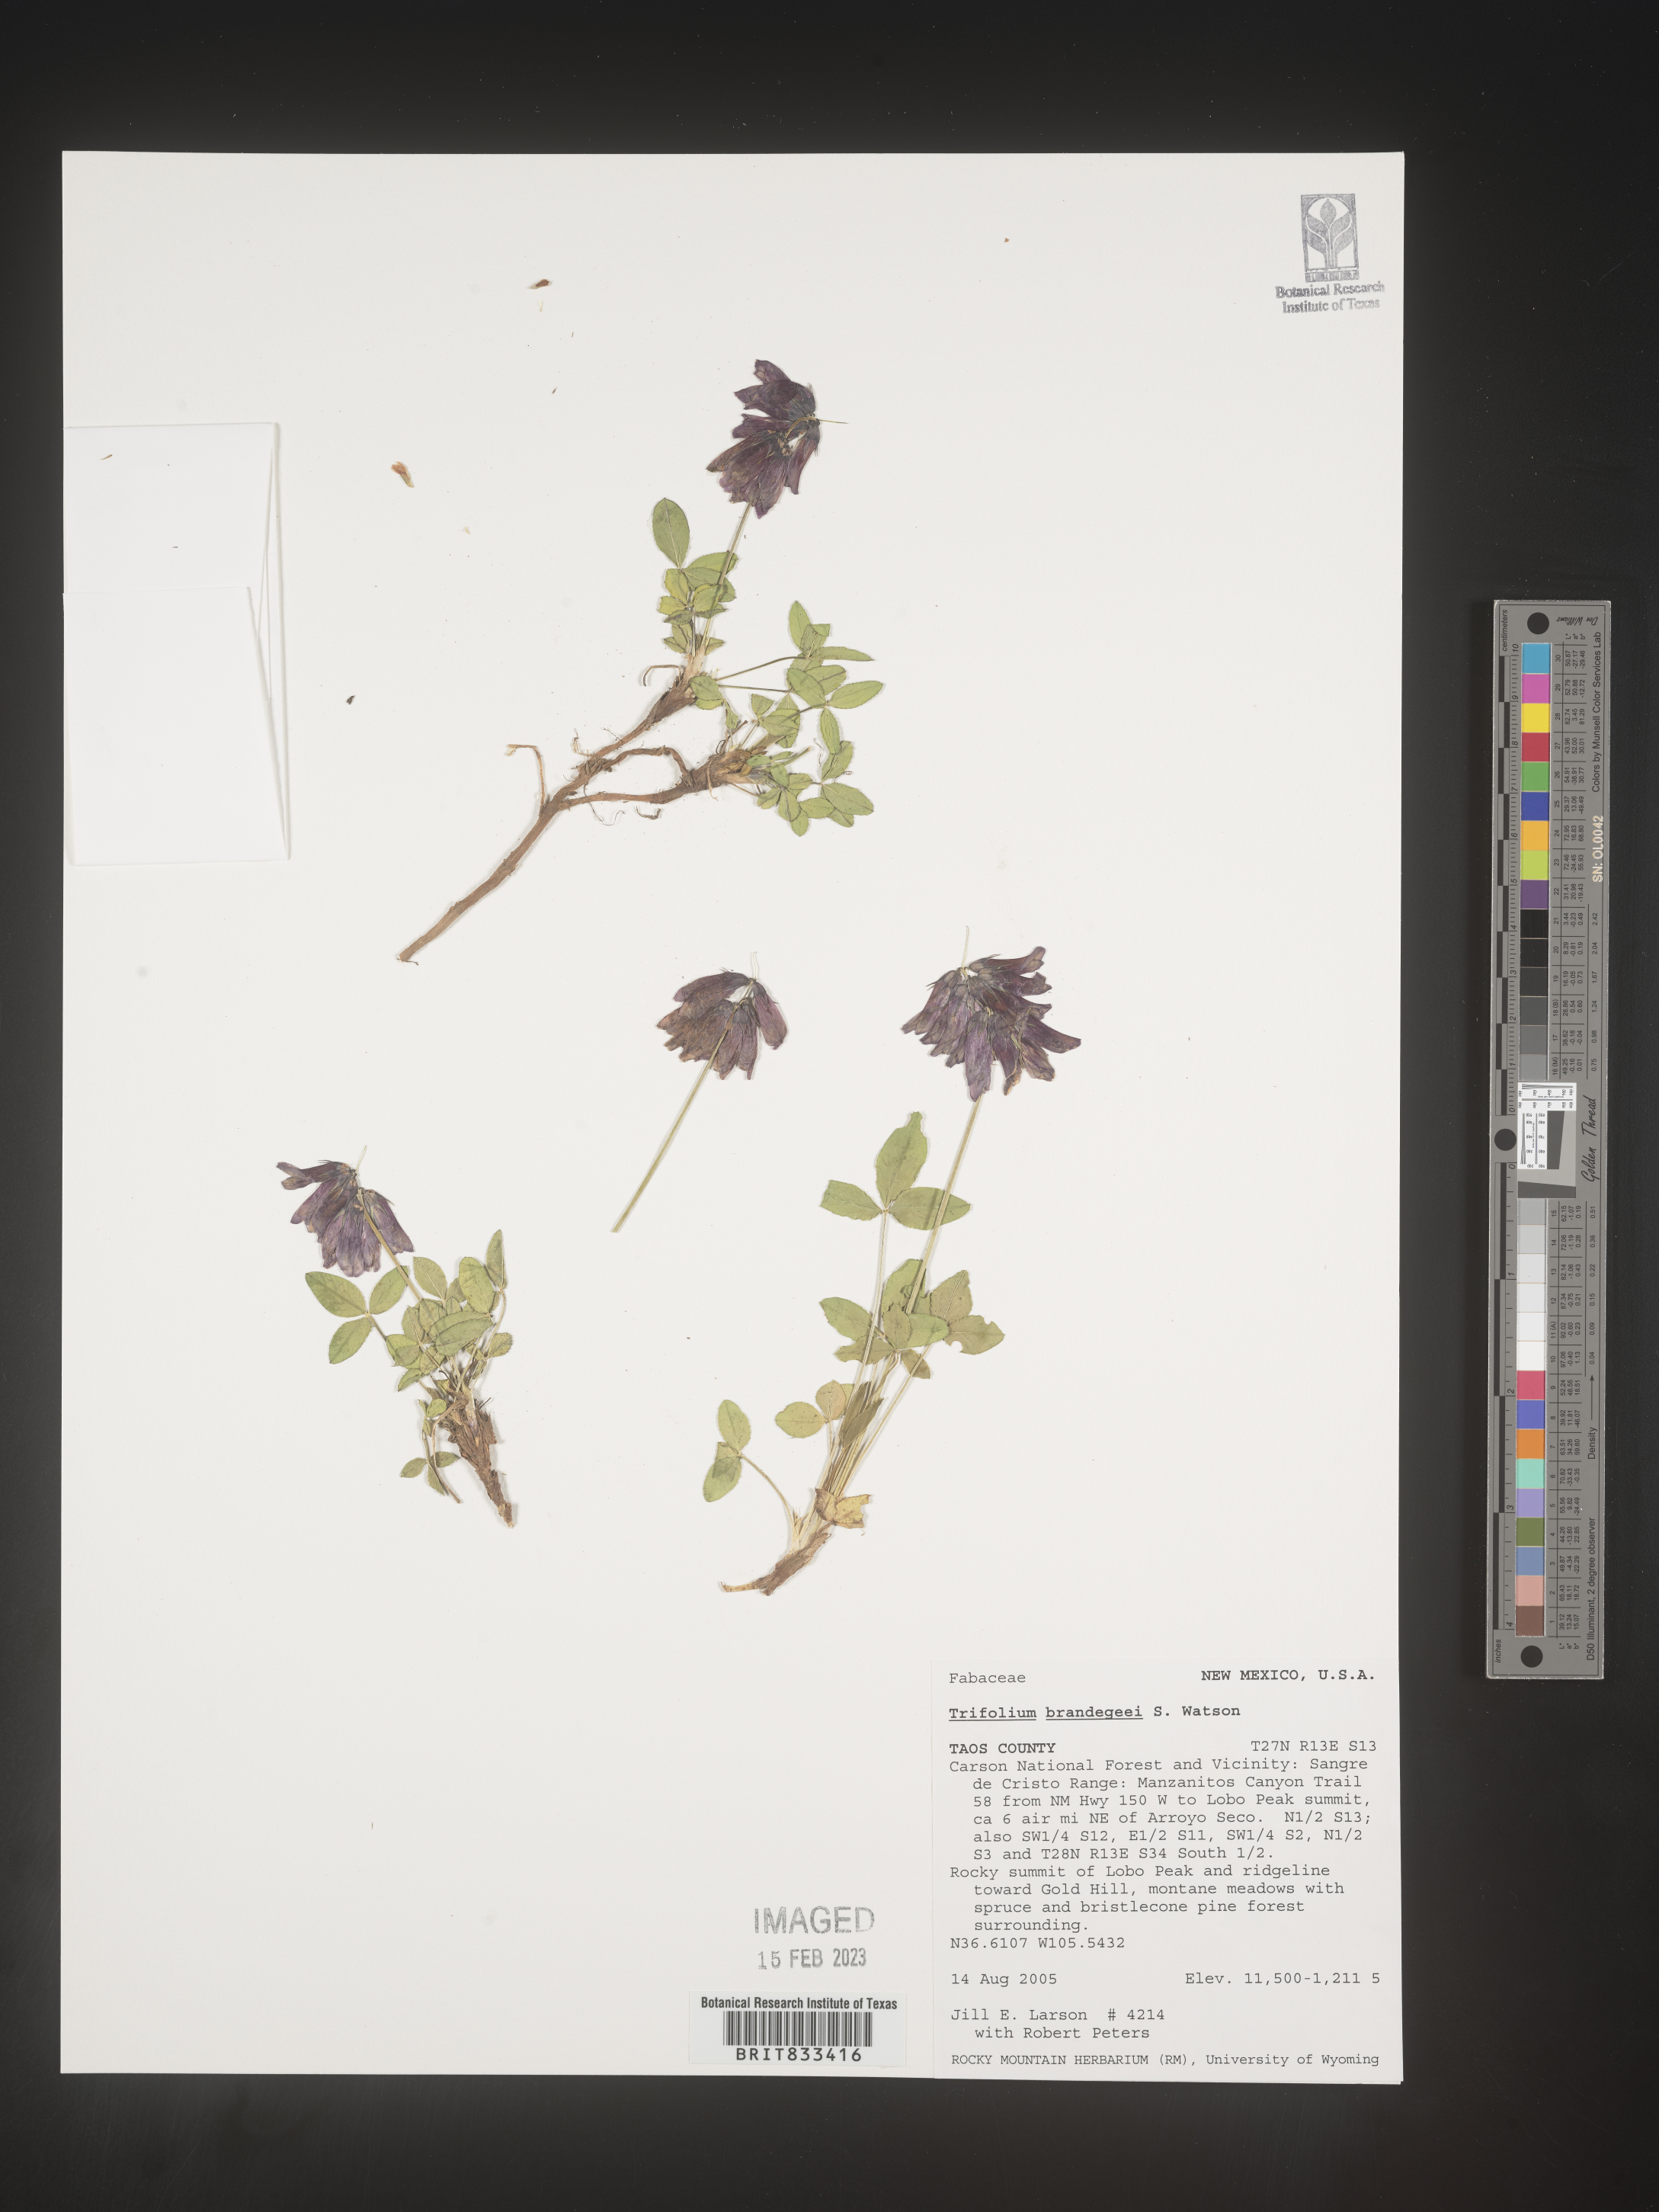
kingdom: Plantae
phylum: Tracheophyta
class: Magnoliopsida
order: Fabales
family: Fabaceae
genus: Trifolium
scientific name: Trifolium
